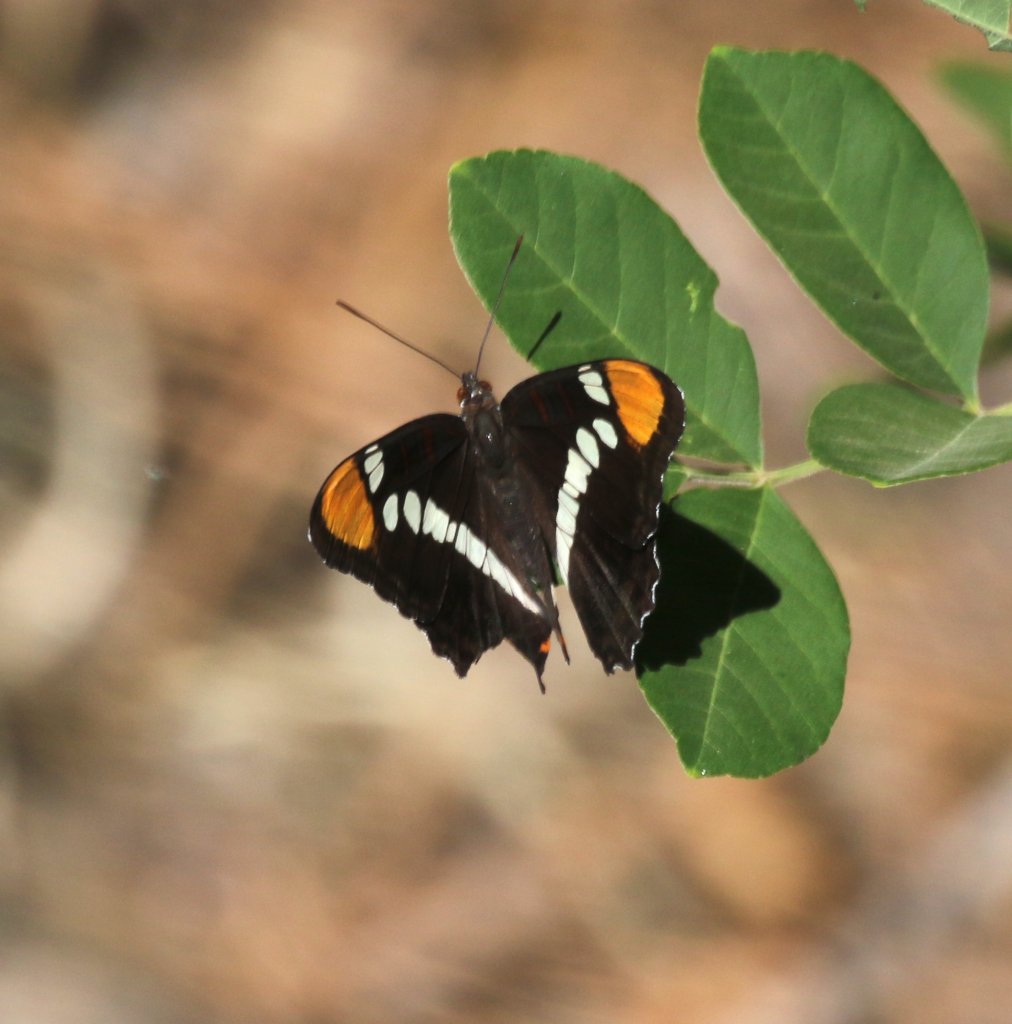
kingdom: Animalia
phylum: Arthropoda
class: Insecta
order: Lepidoptera
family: Nymphalidae
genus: Limenitis
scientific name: Limenitis bredowii
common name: Arizona Sister
